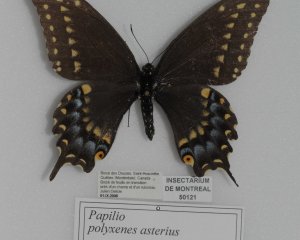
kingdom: Animalia
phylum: Arthropoda
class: Insecta
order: Lepidoptera
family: Papilionidae
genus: Papilio
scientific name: Papilio polyxenes
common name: Black Swallowtail
